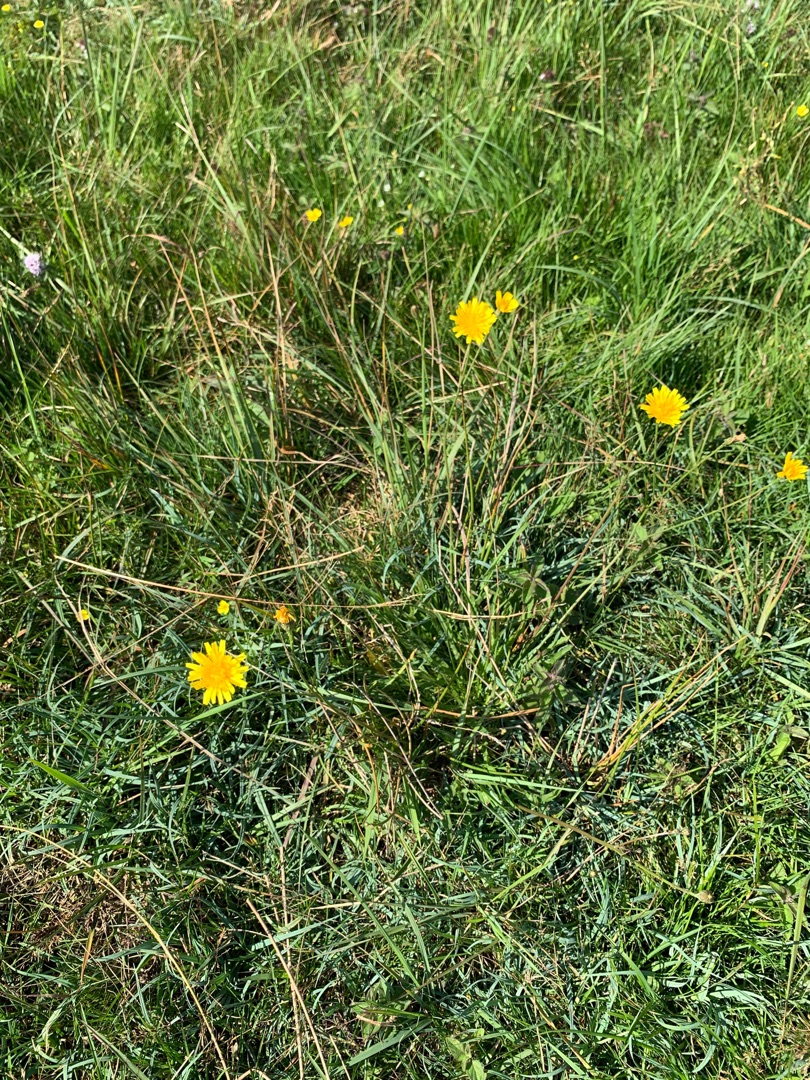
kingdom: Plantae
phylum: Tracheophyta
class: Magnoliopsida
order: Asterales
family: Asteraceae
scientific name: Asteraceae
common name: Kurvblomstfamilien
